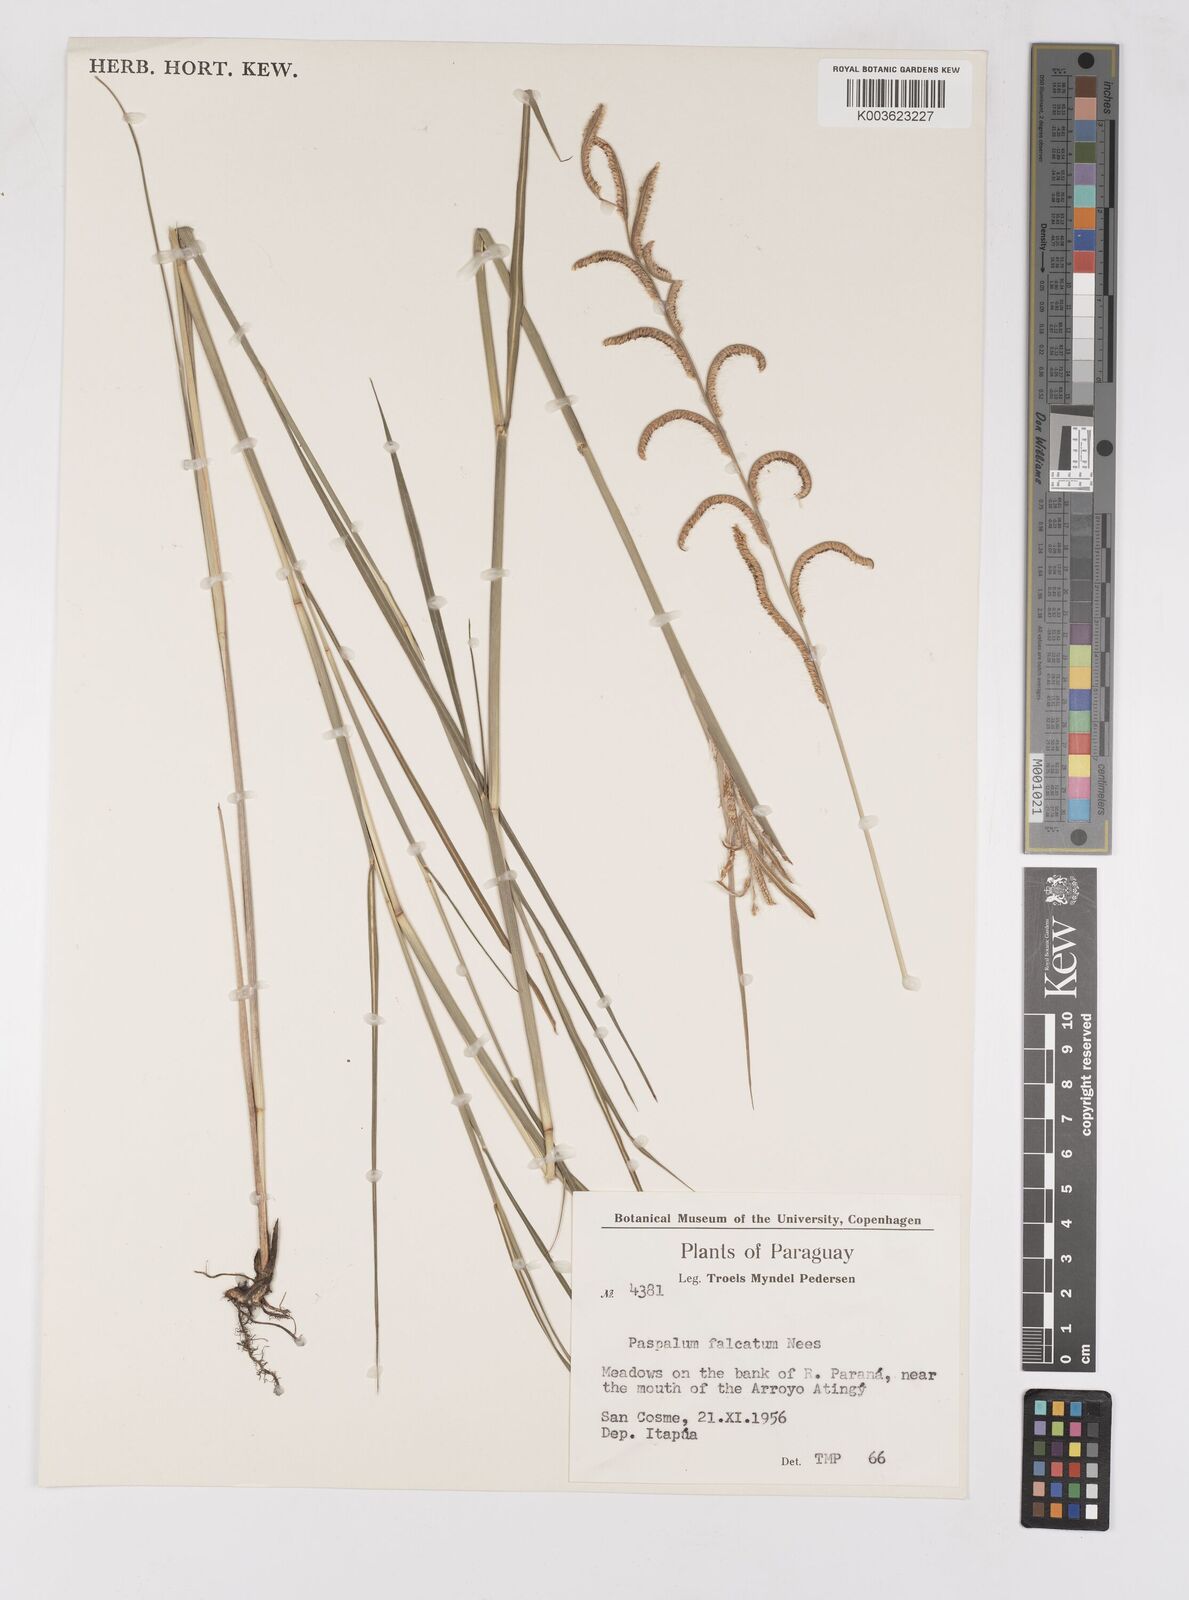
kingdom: Plantae
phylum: Tracheophyta
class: Liliopsida
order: Poales
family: Poaceae
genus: Paspalum
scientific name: Paspalum falcatum
